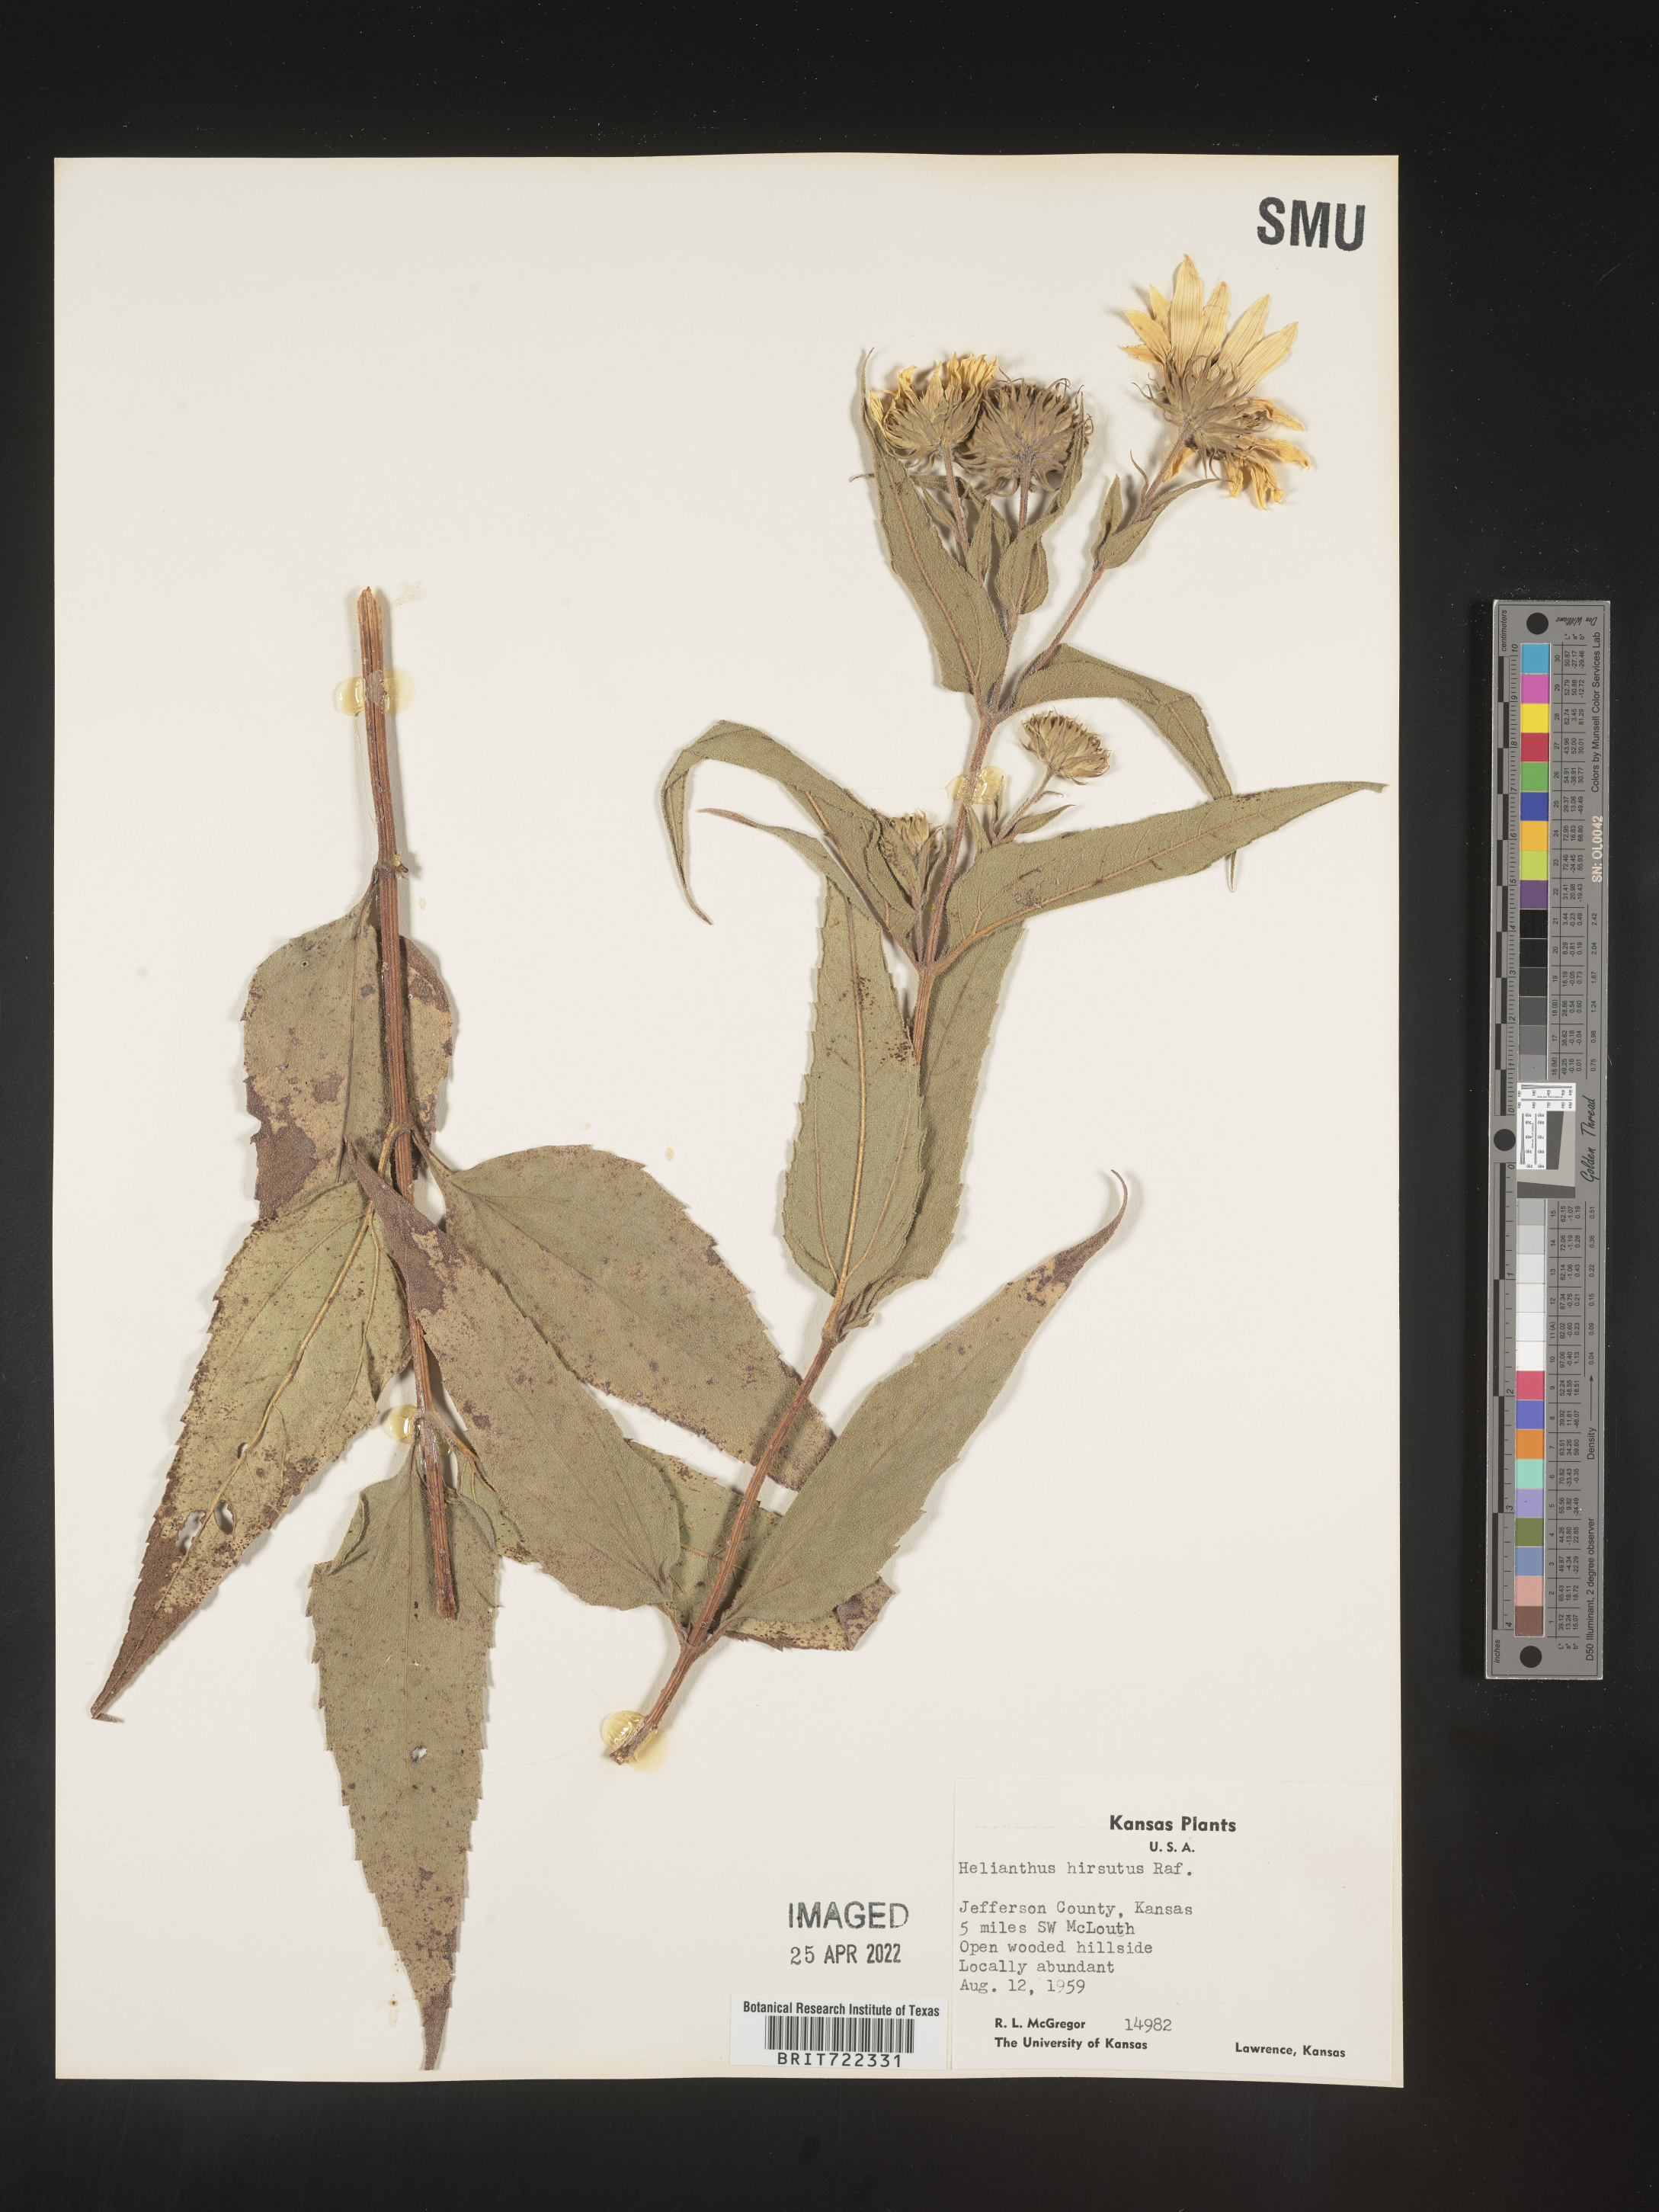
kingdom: Plantae
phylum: Tracheophyta
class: Magnoliopsida
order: Asterales
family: Asteraceae
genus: Helianthus
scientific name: Helianthus hirsutus
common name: Hairy sunflower
